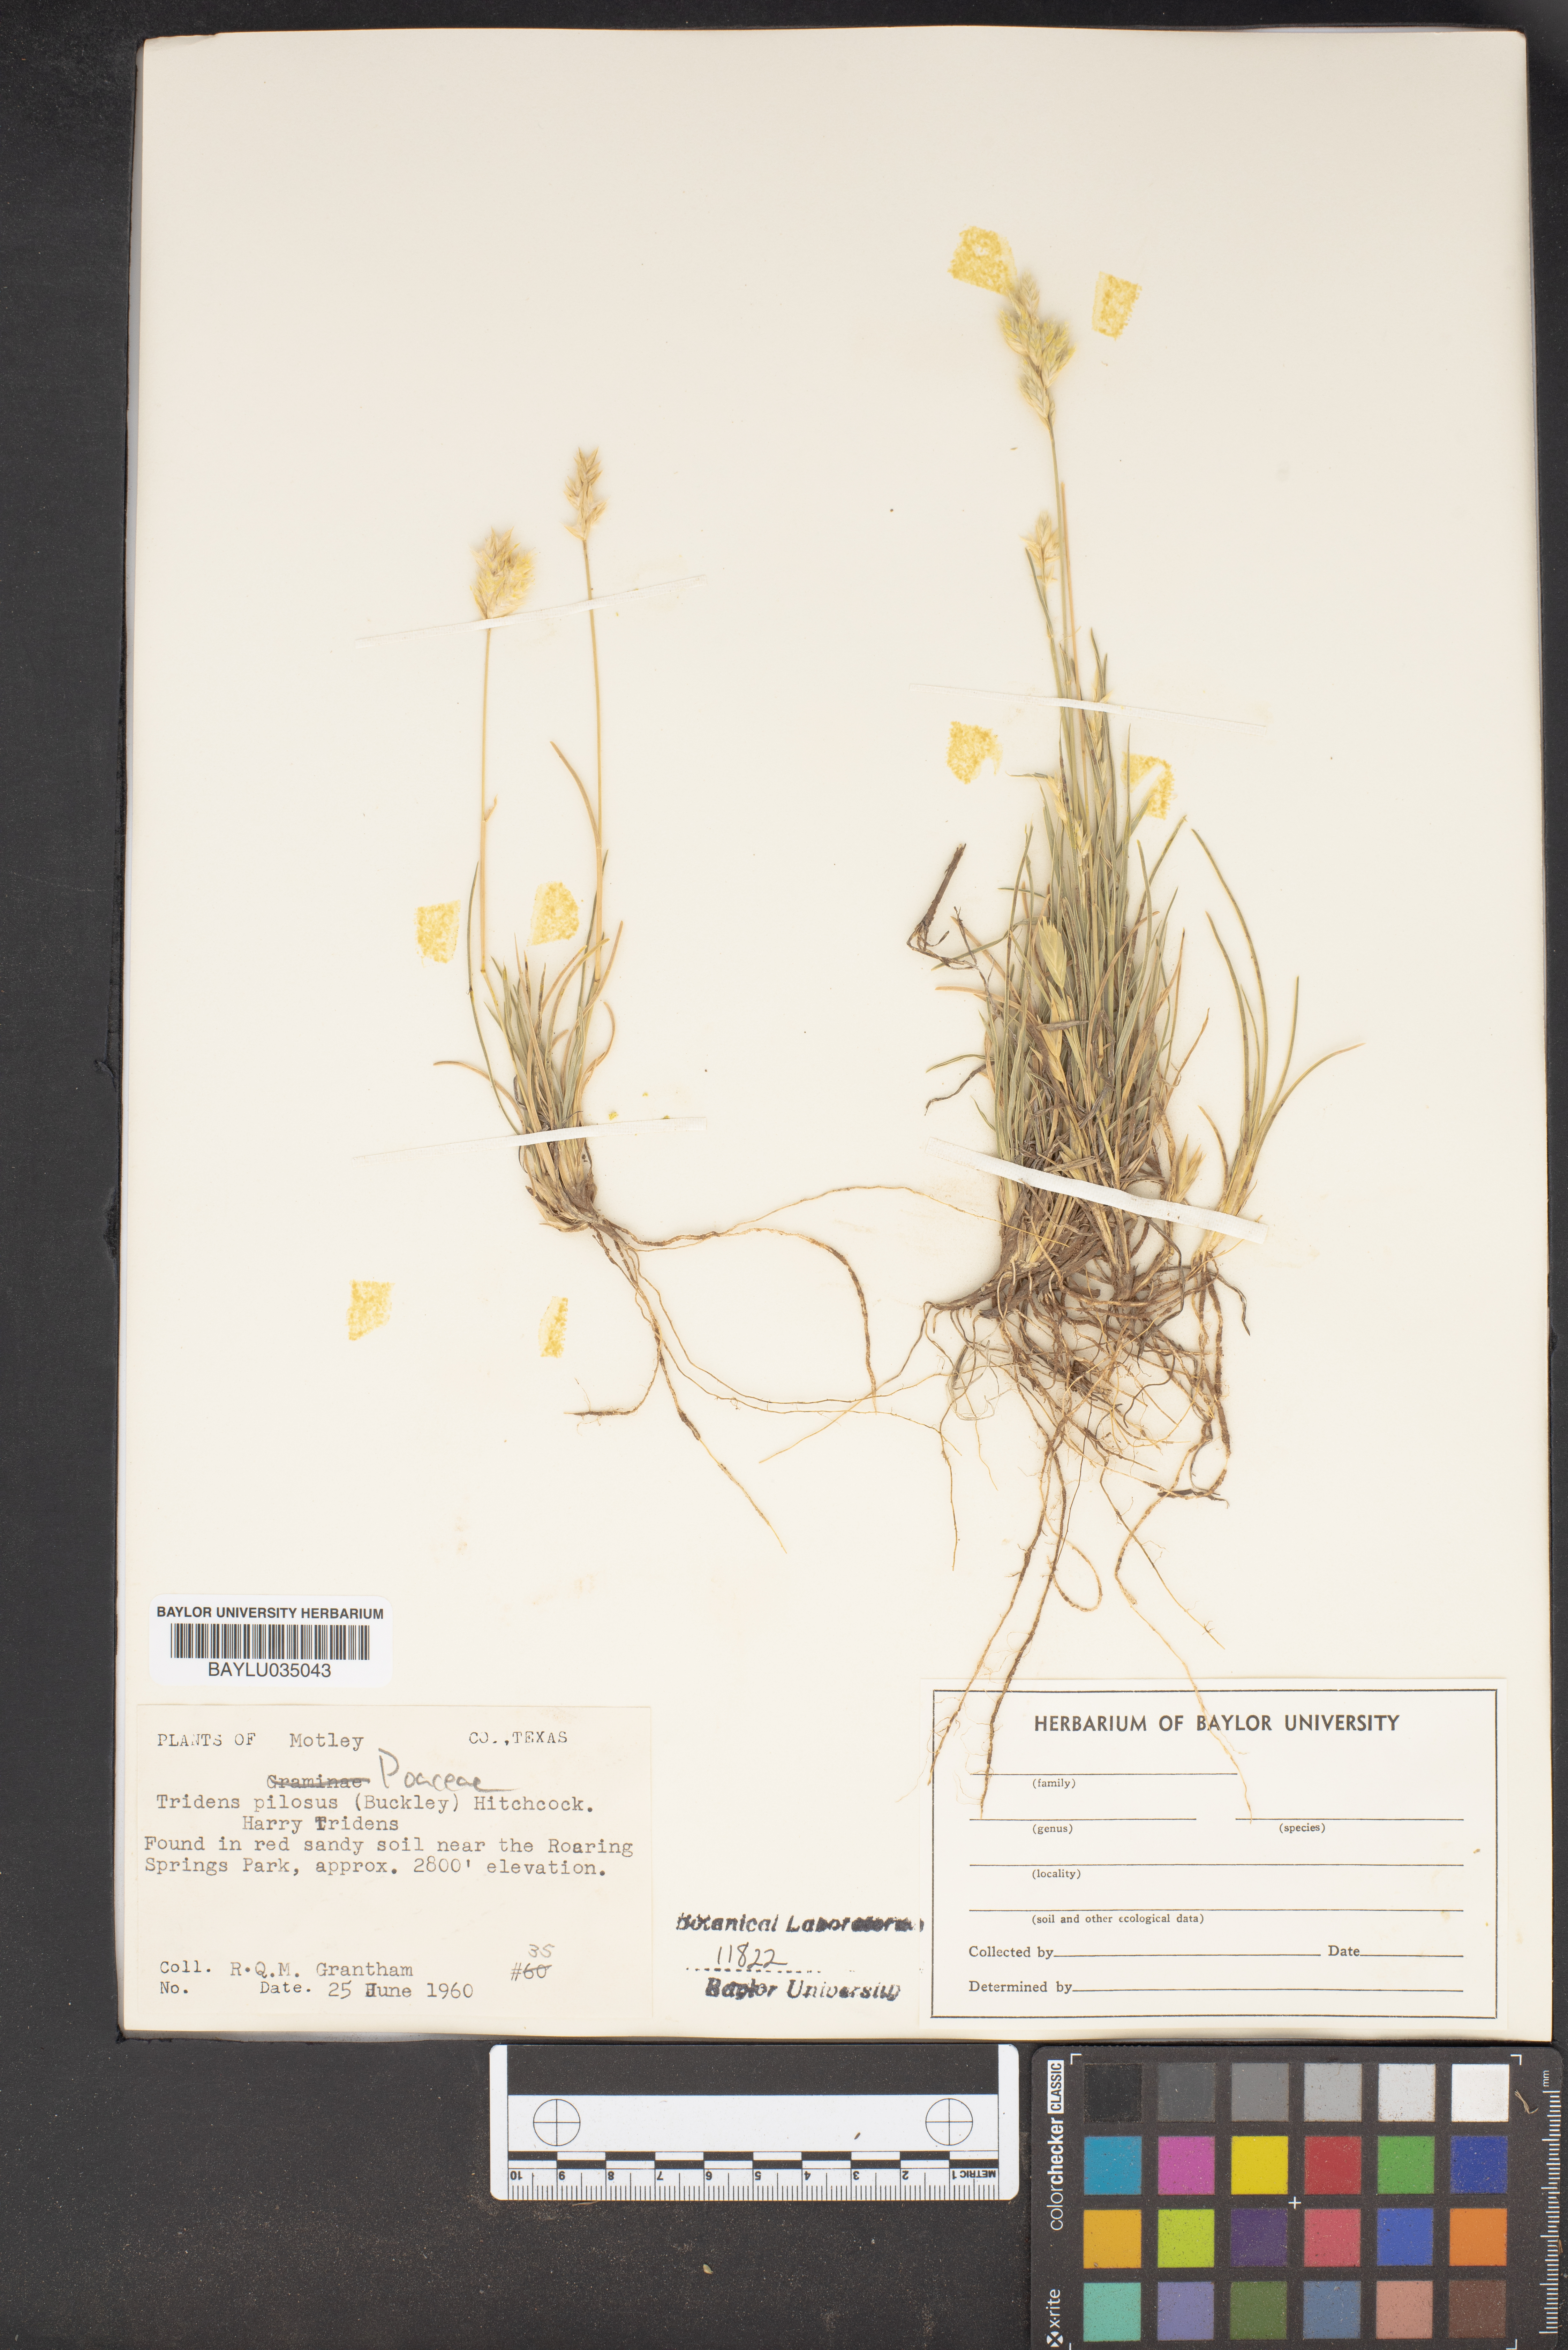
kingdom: Plantae
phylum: Tracheophyta
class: Liliopsida
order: Poales
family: Poaceae
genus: Tridentopsis
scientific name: Tridentopsis mutica
